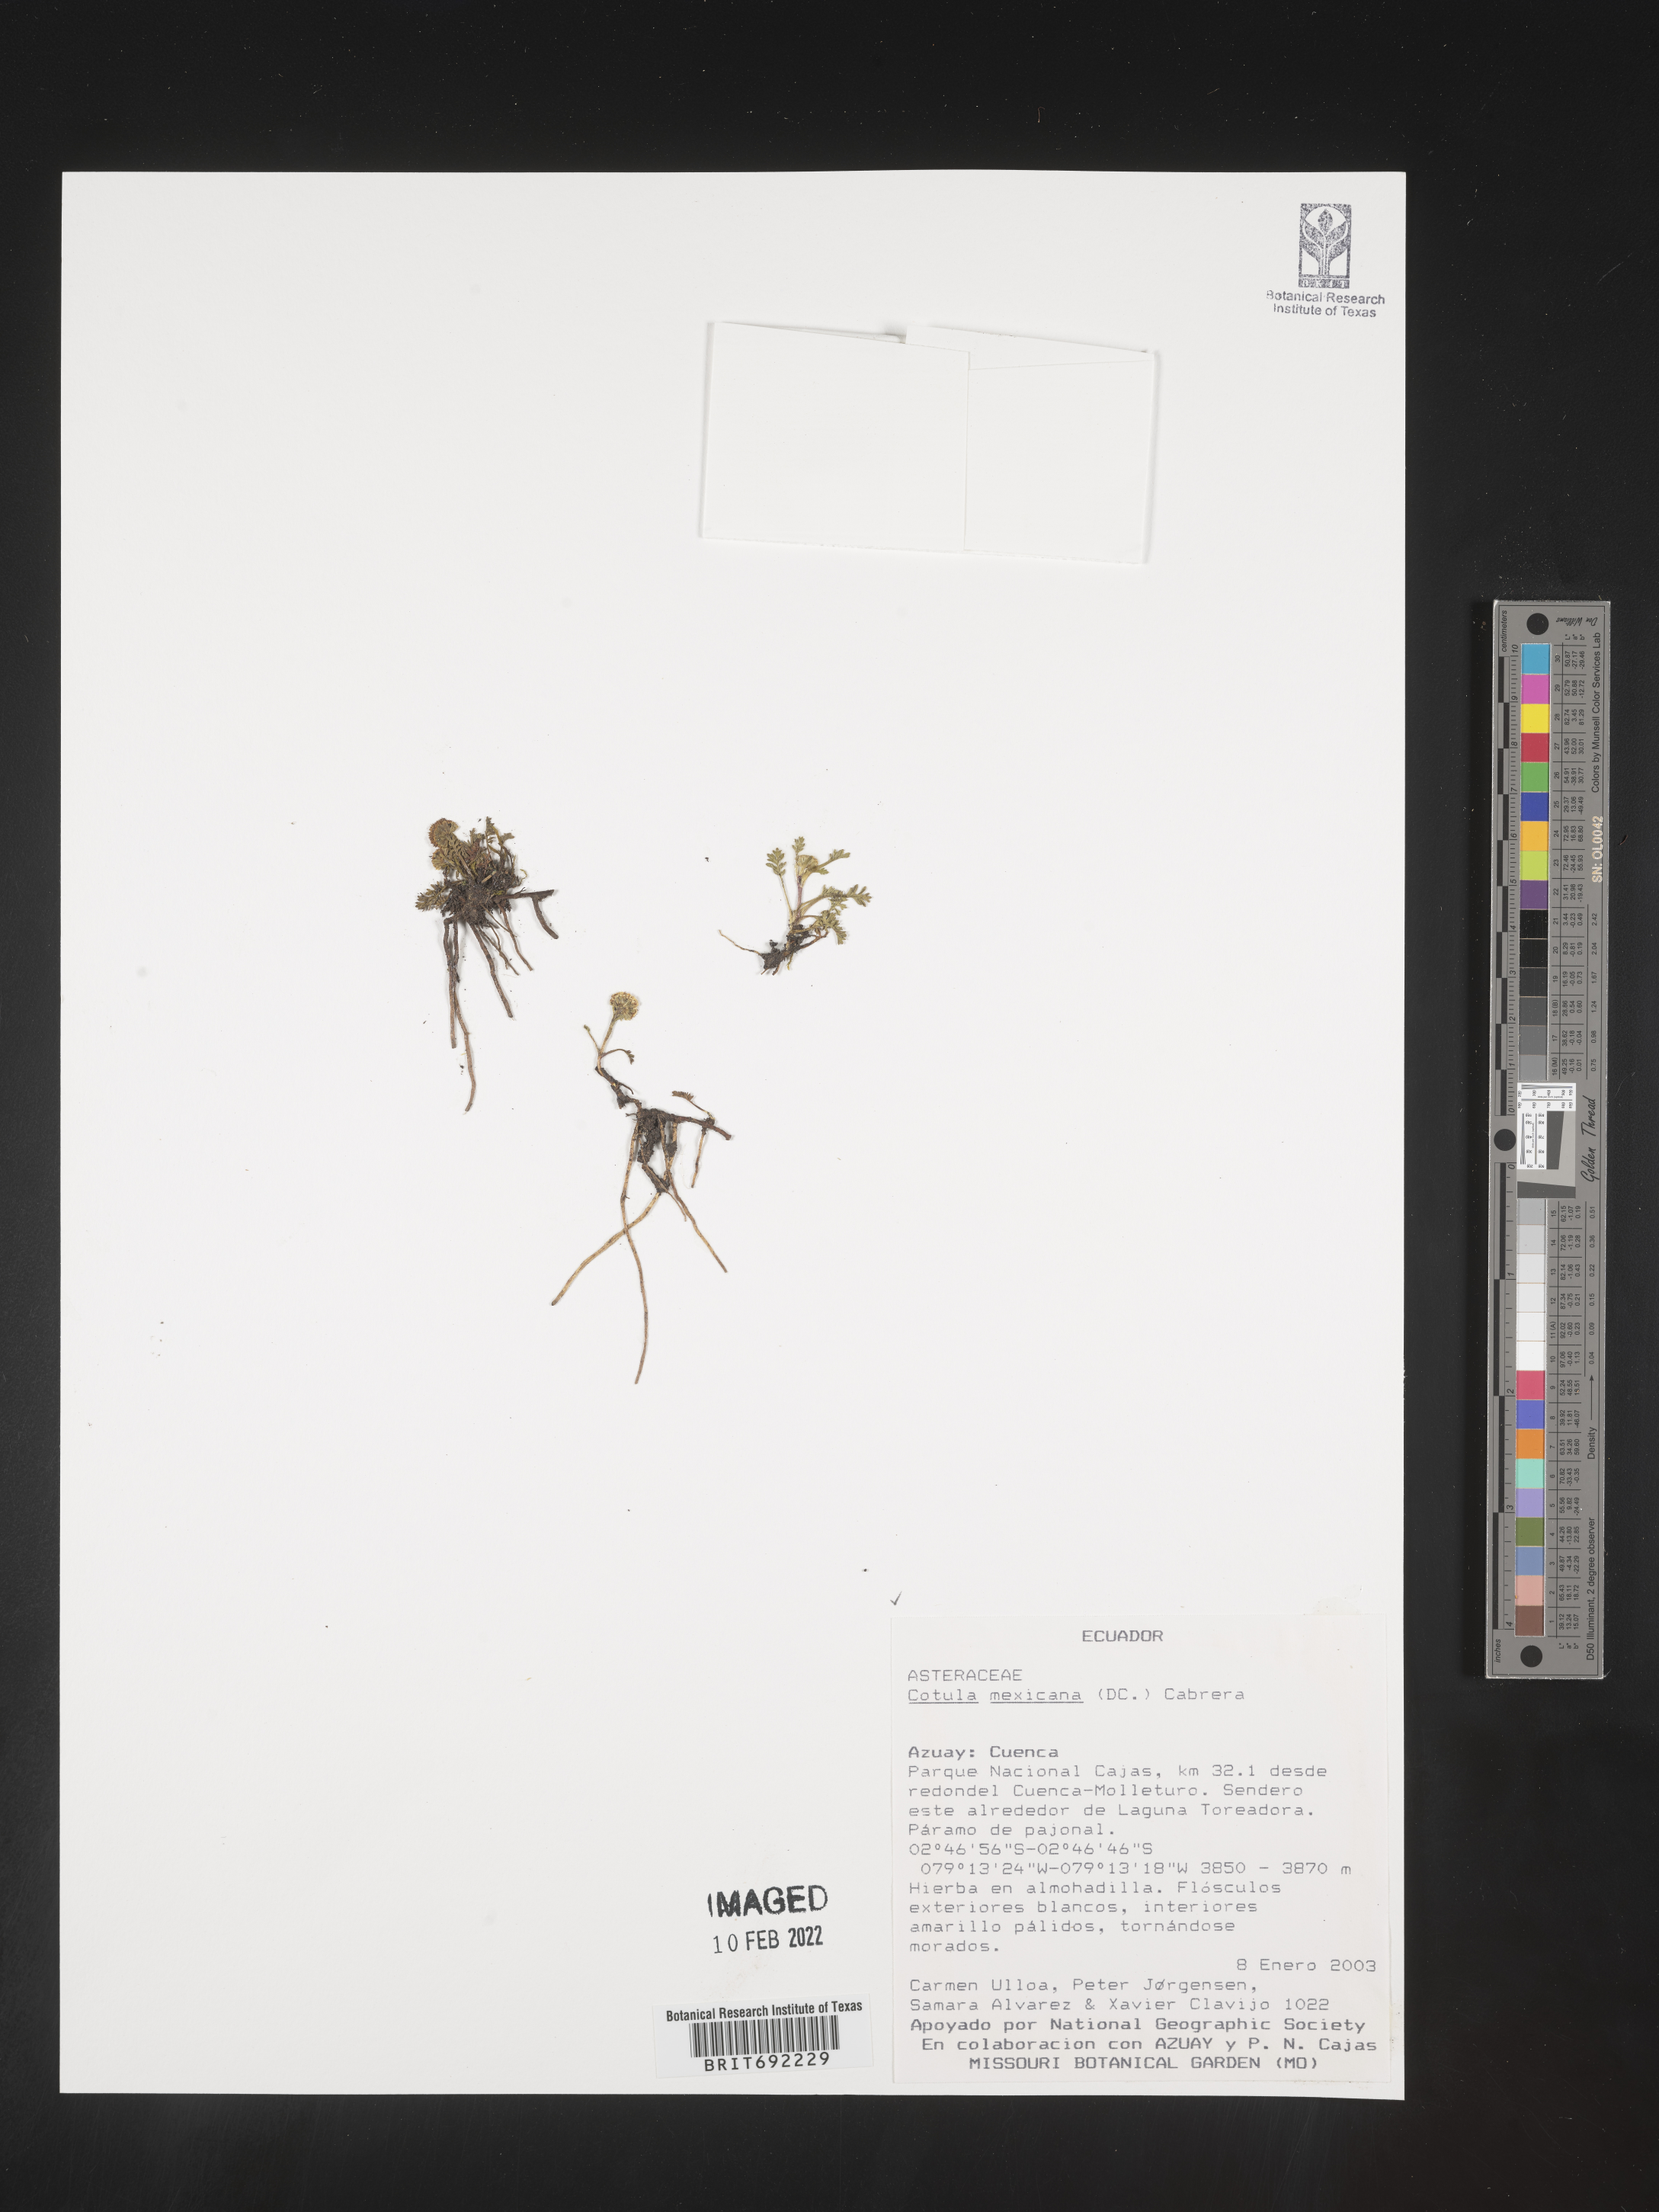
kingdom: Plantae
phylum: Tracheophyta
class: Magnoliopsida
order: Asterales
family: Asteraceae
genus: Cotula
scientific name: Cotula
